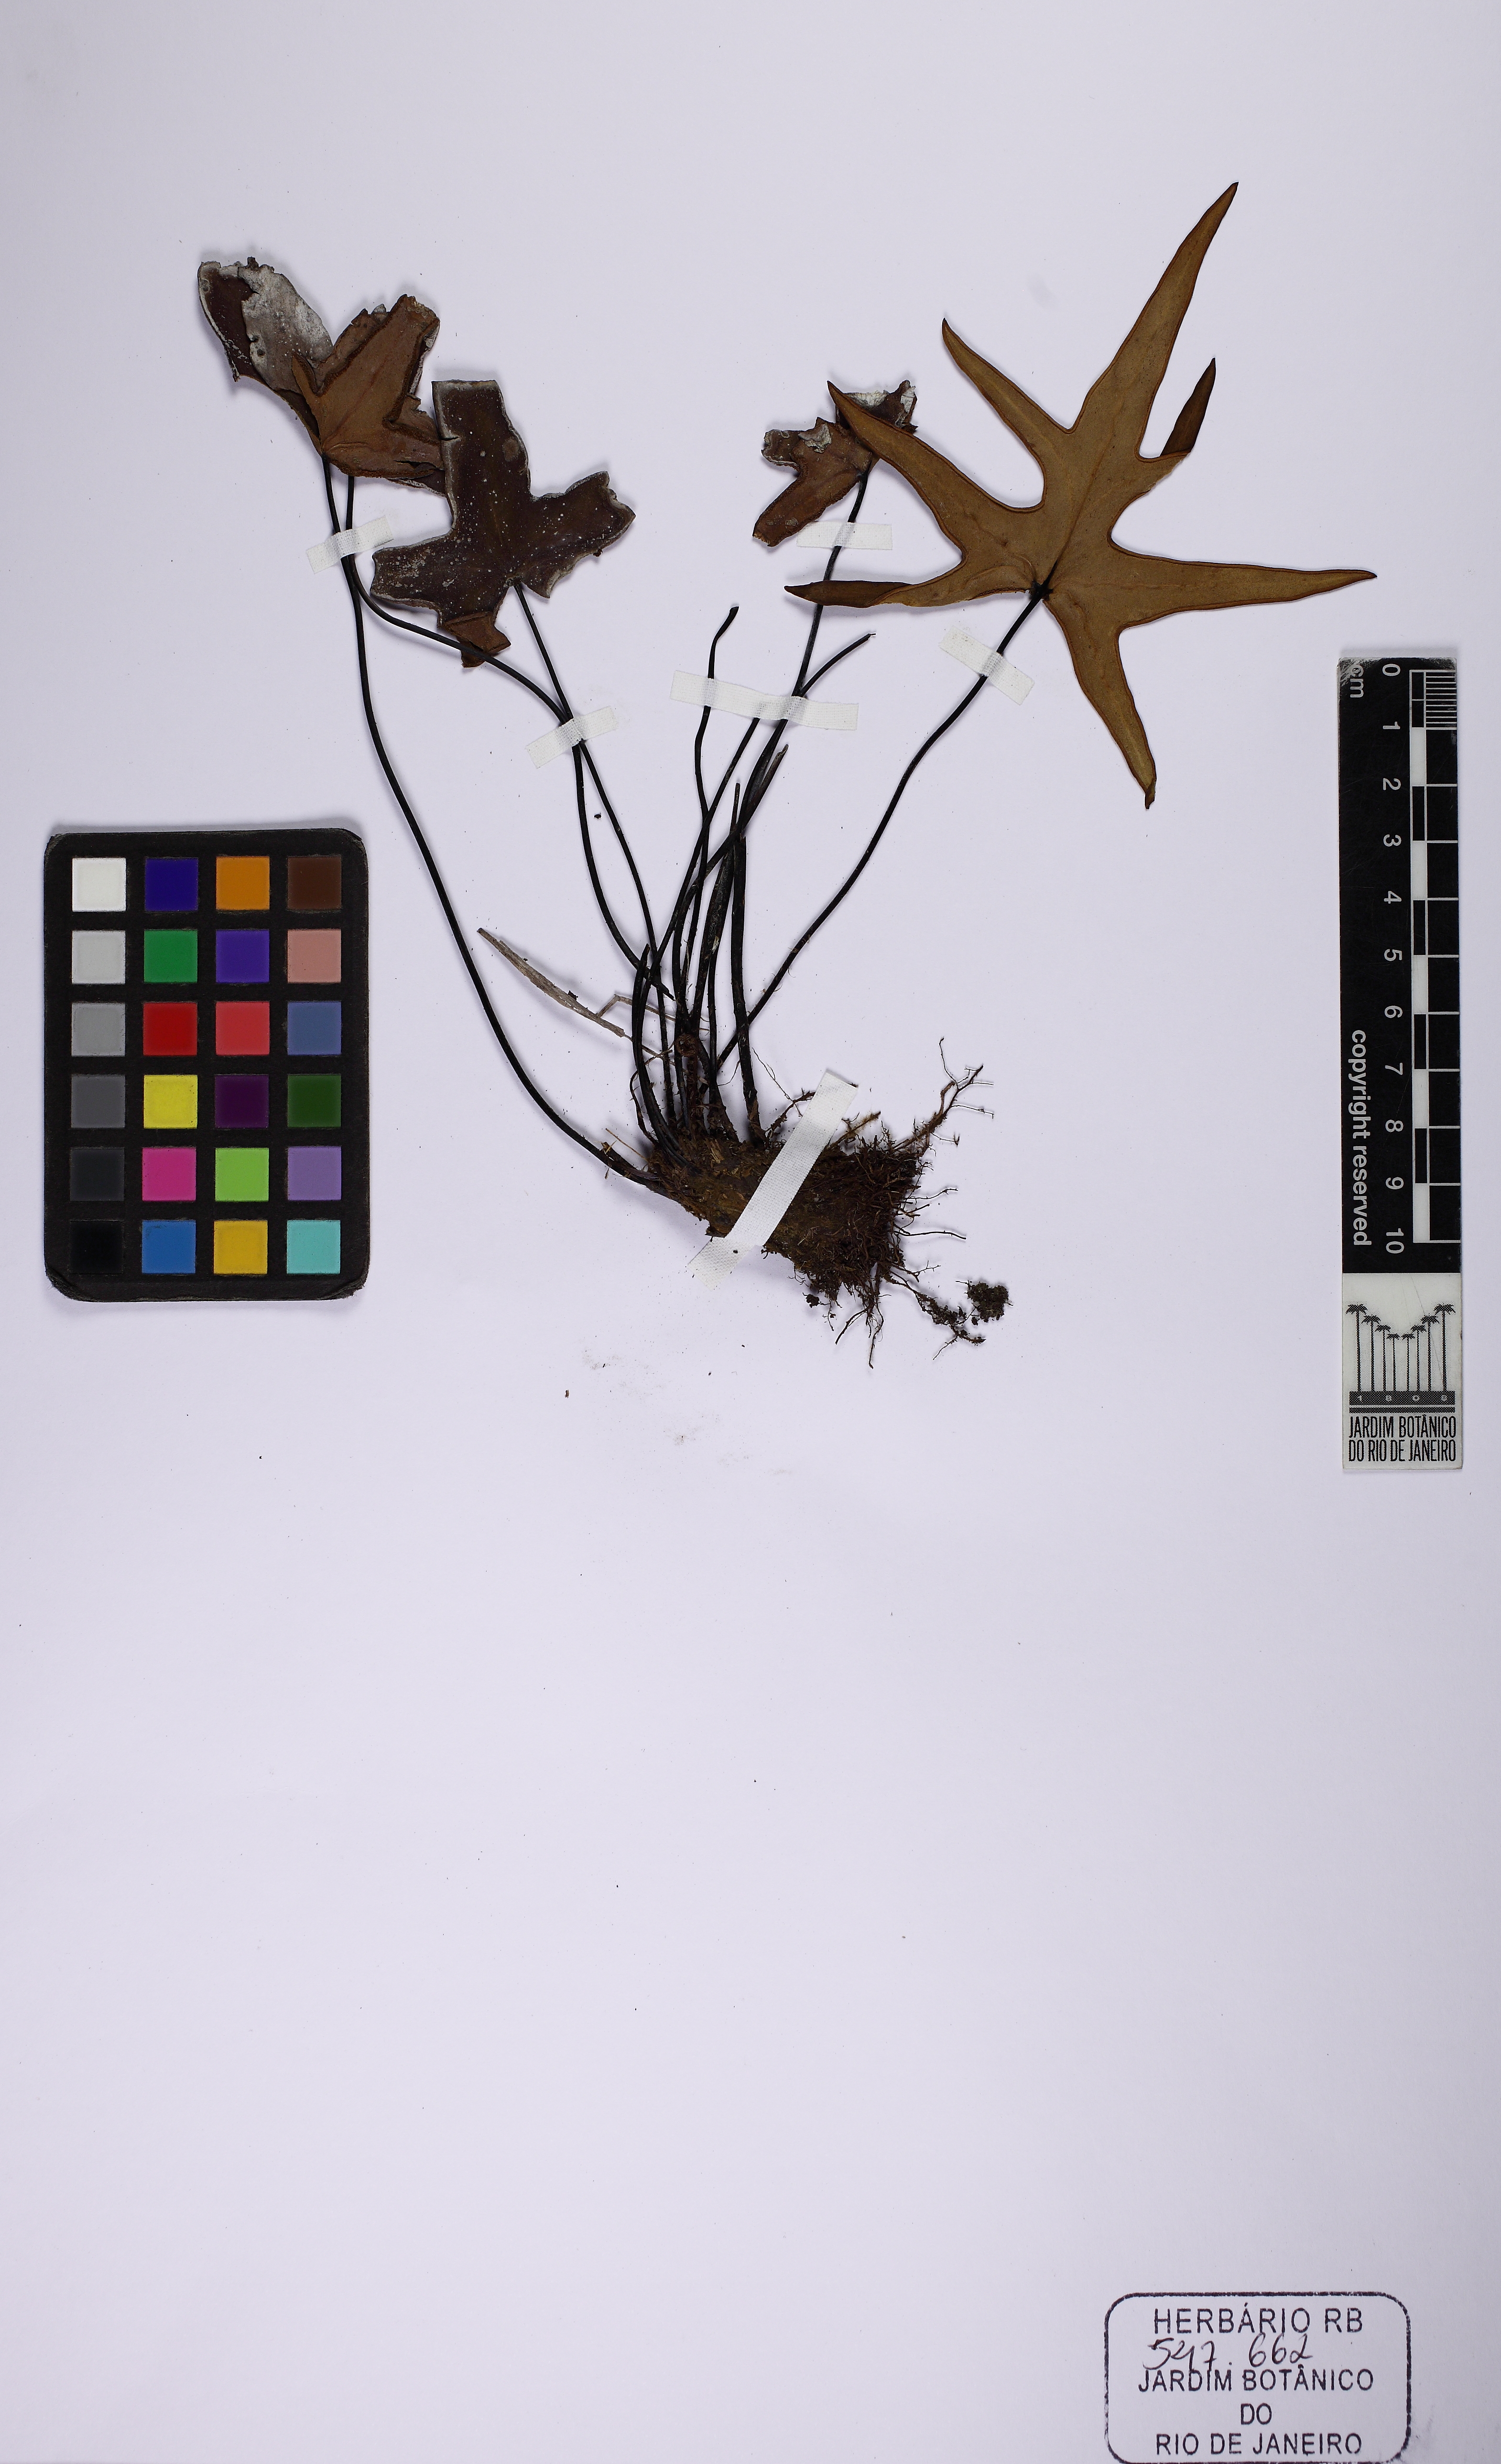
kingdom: Plantae
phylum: Tracheophyta
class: Polypodiopsida
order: Polypodiales
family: Pteridaceae
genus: Doryopteris
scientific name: Doryopteris rediviva
